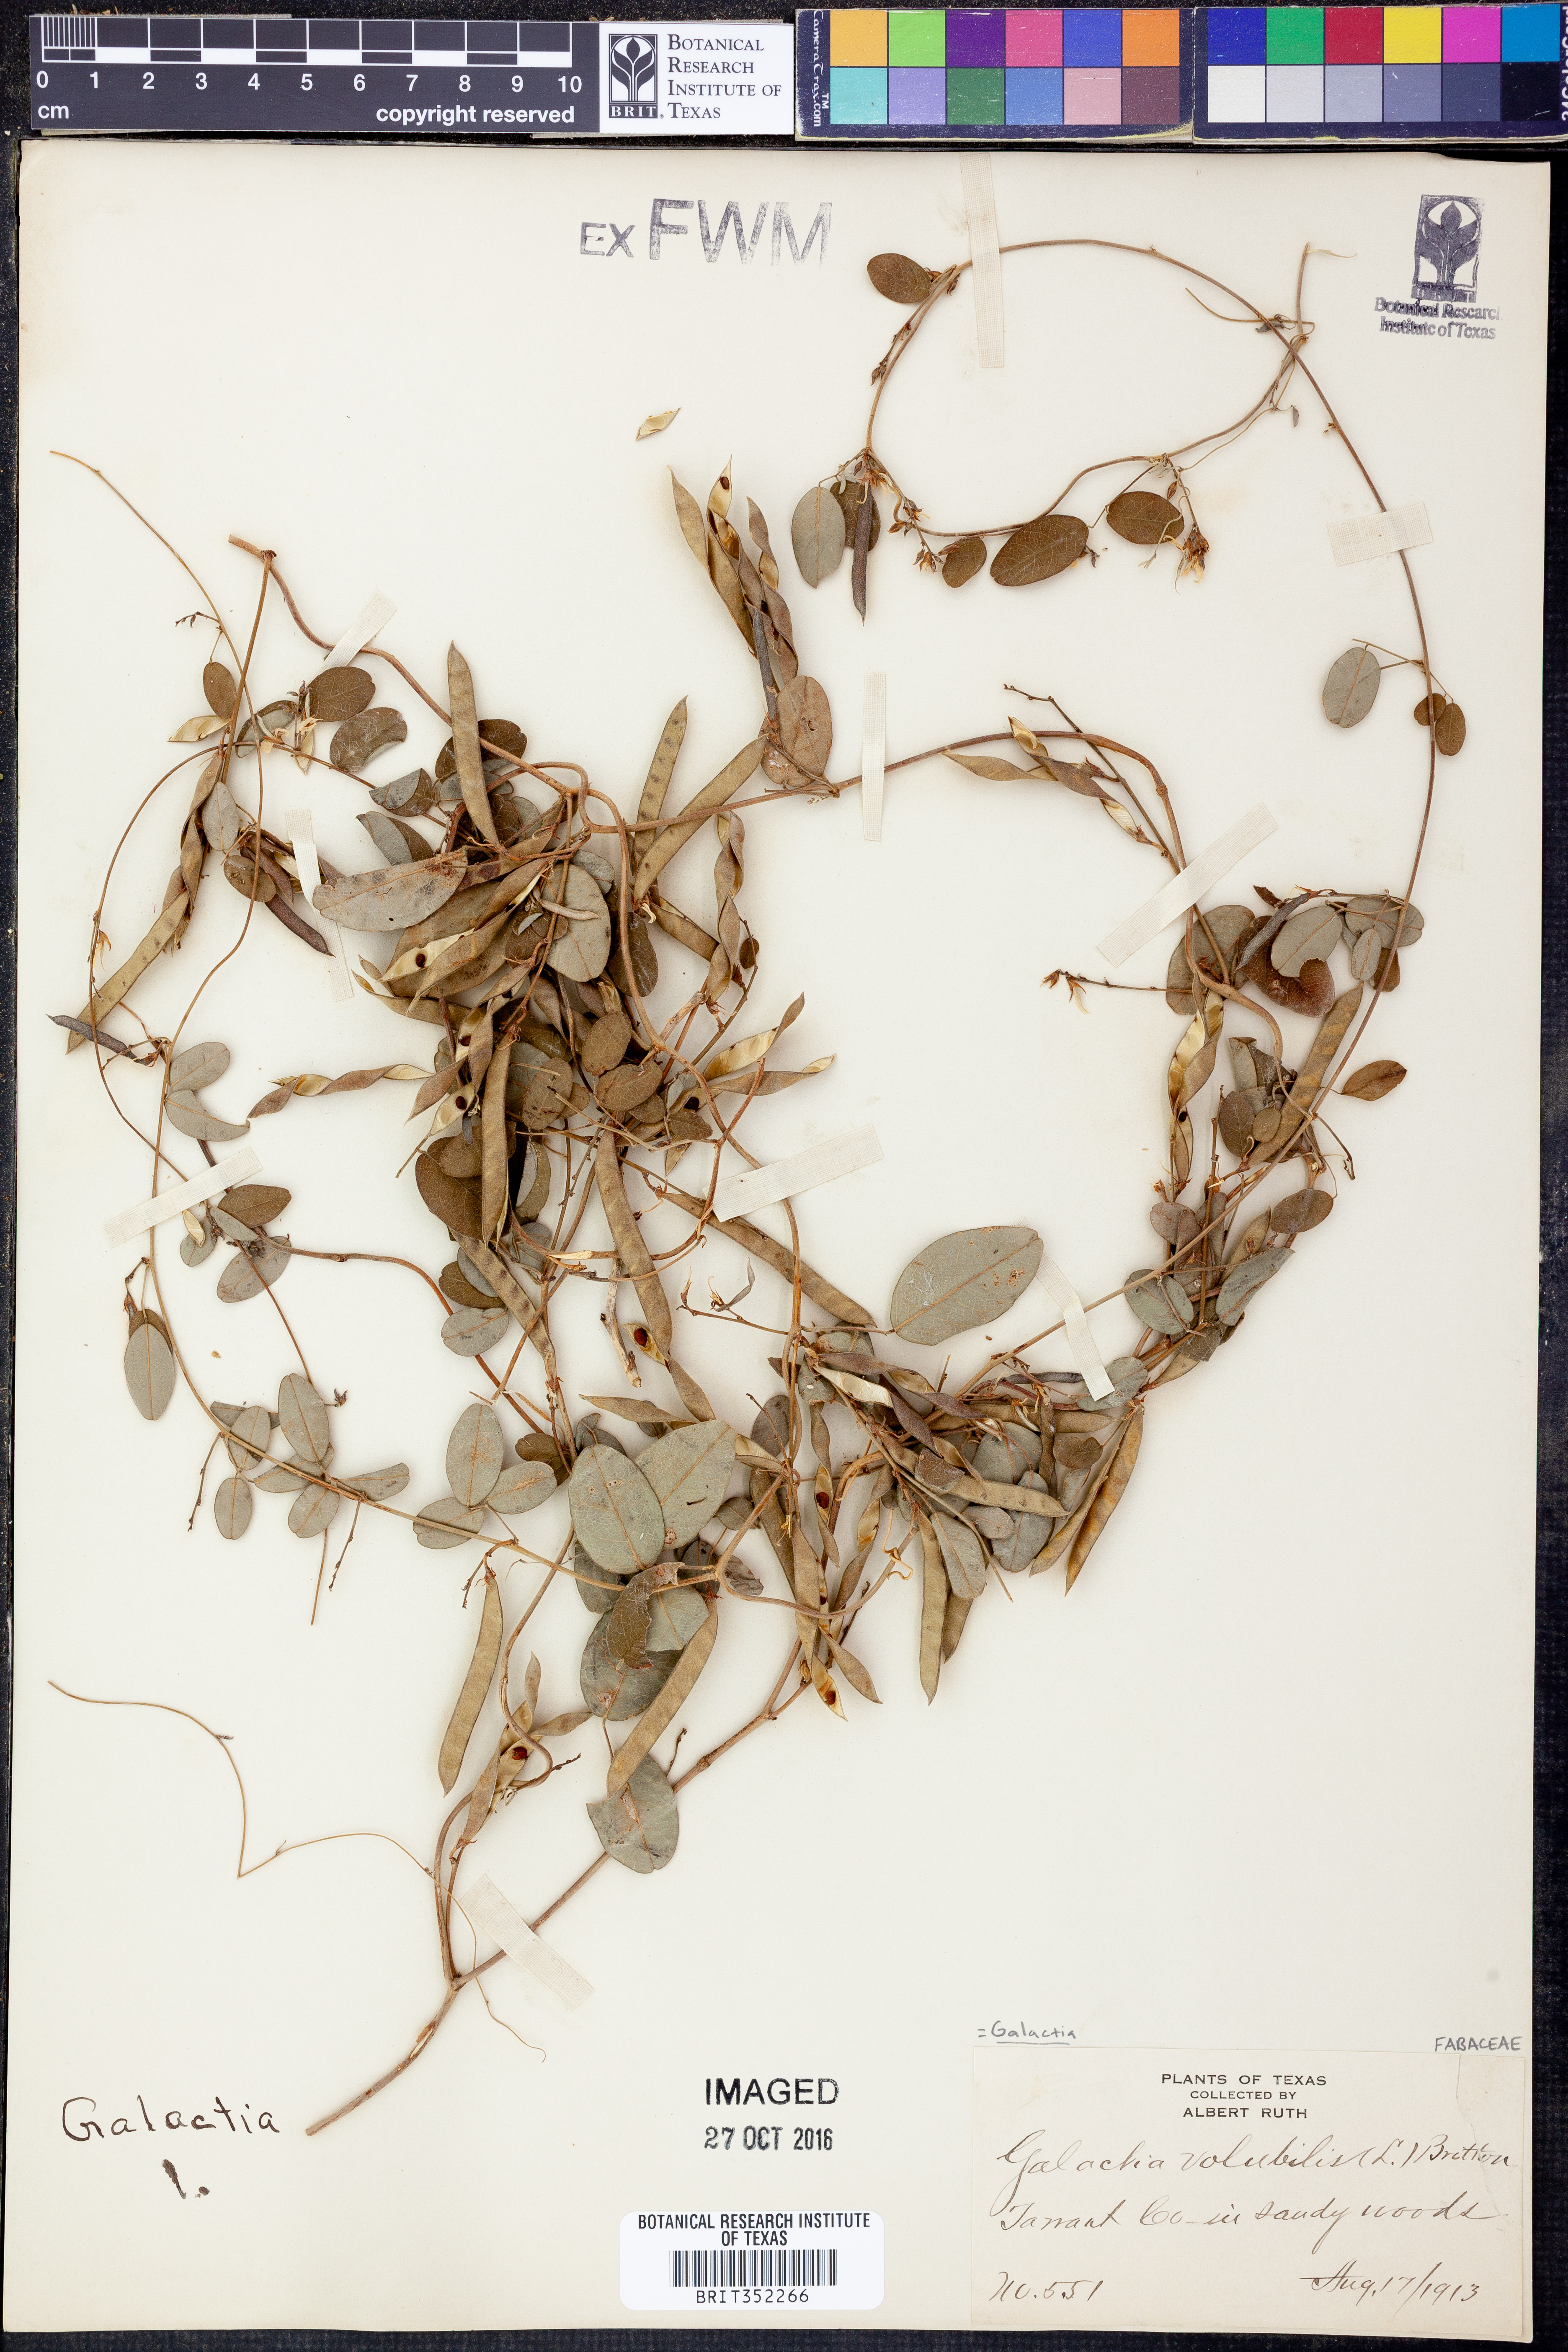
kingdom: Plantae
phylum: Tracheophyta
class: Magnoliopsida
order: Fabales
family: Fabaceae
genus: Galactia
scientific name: Galactia volubilis
